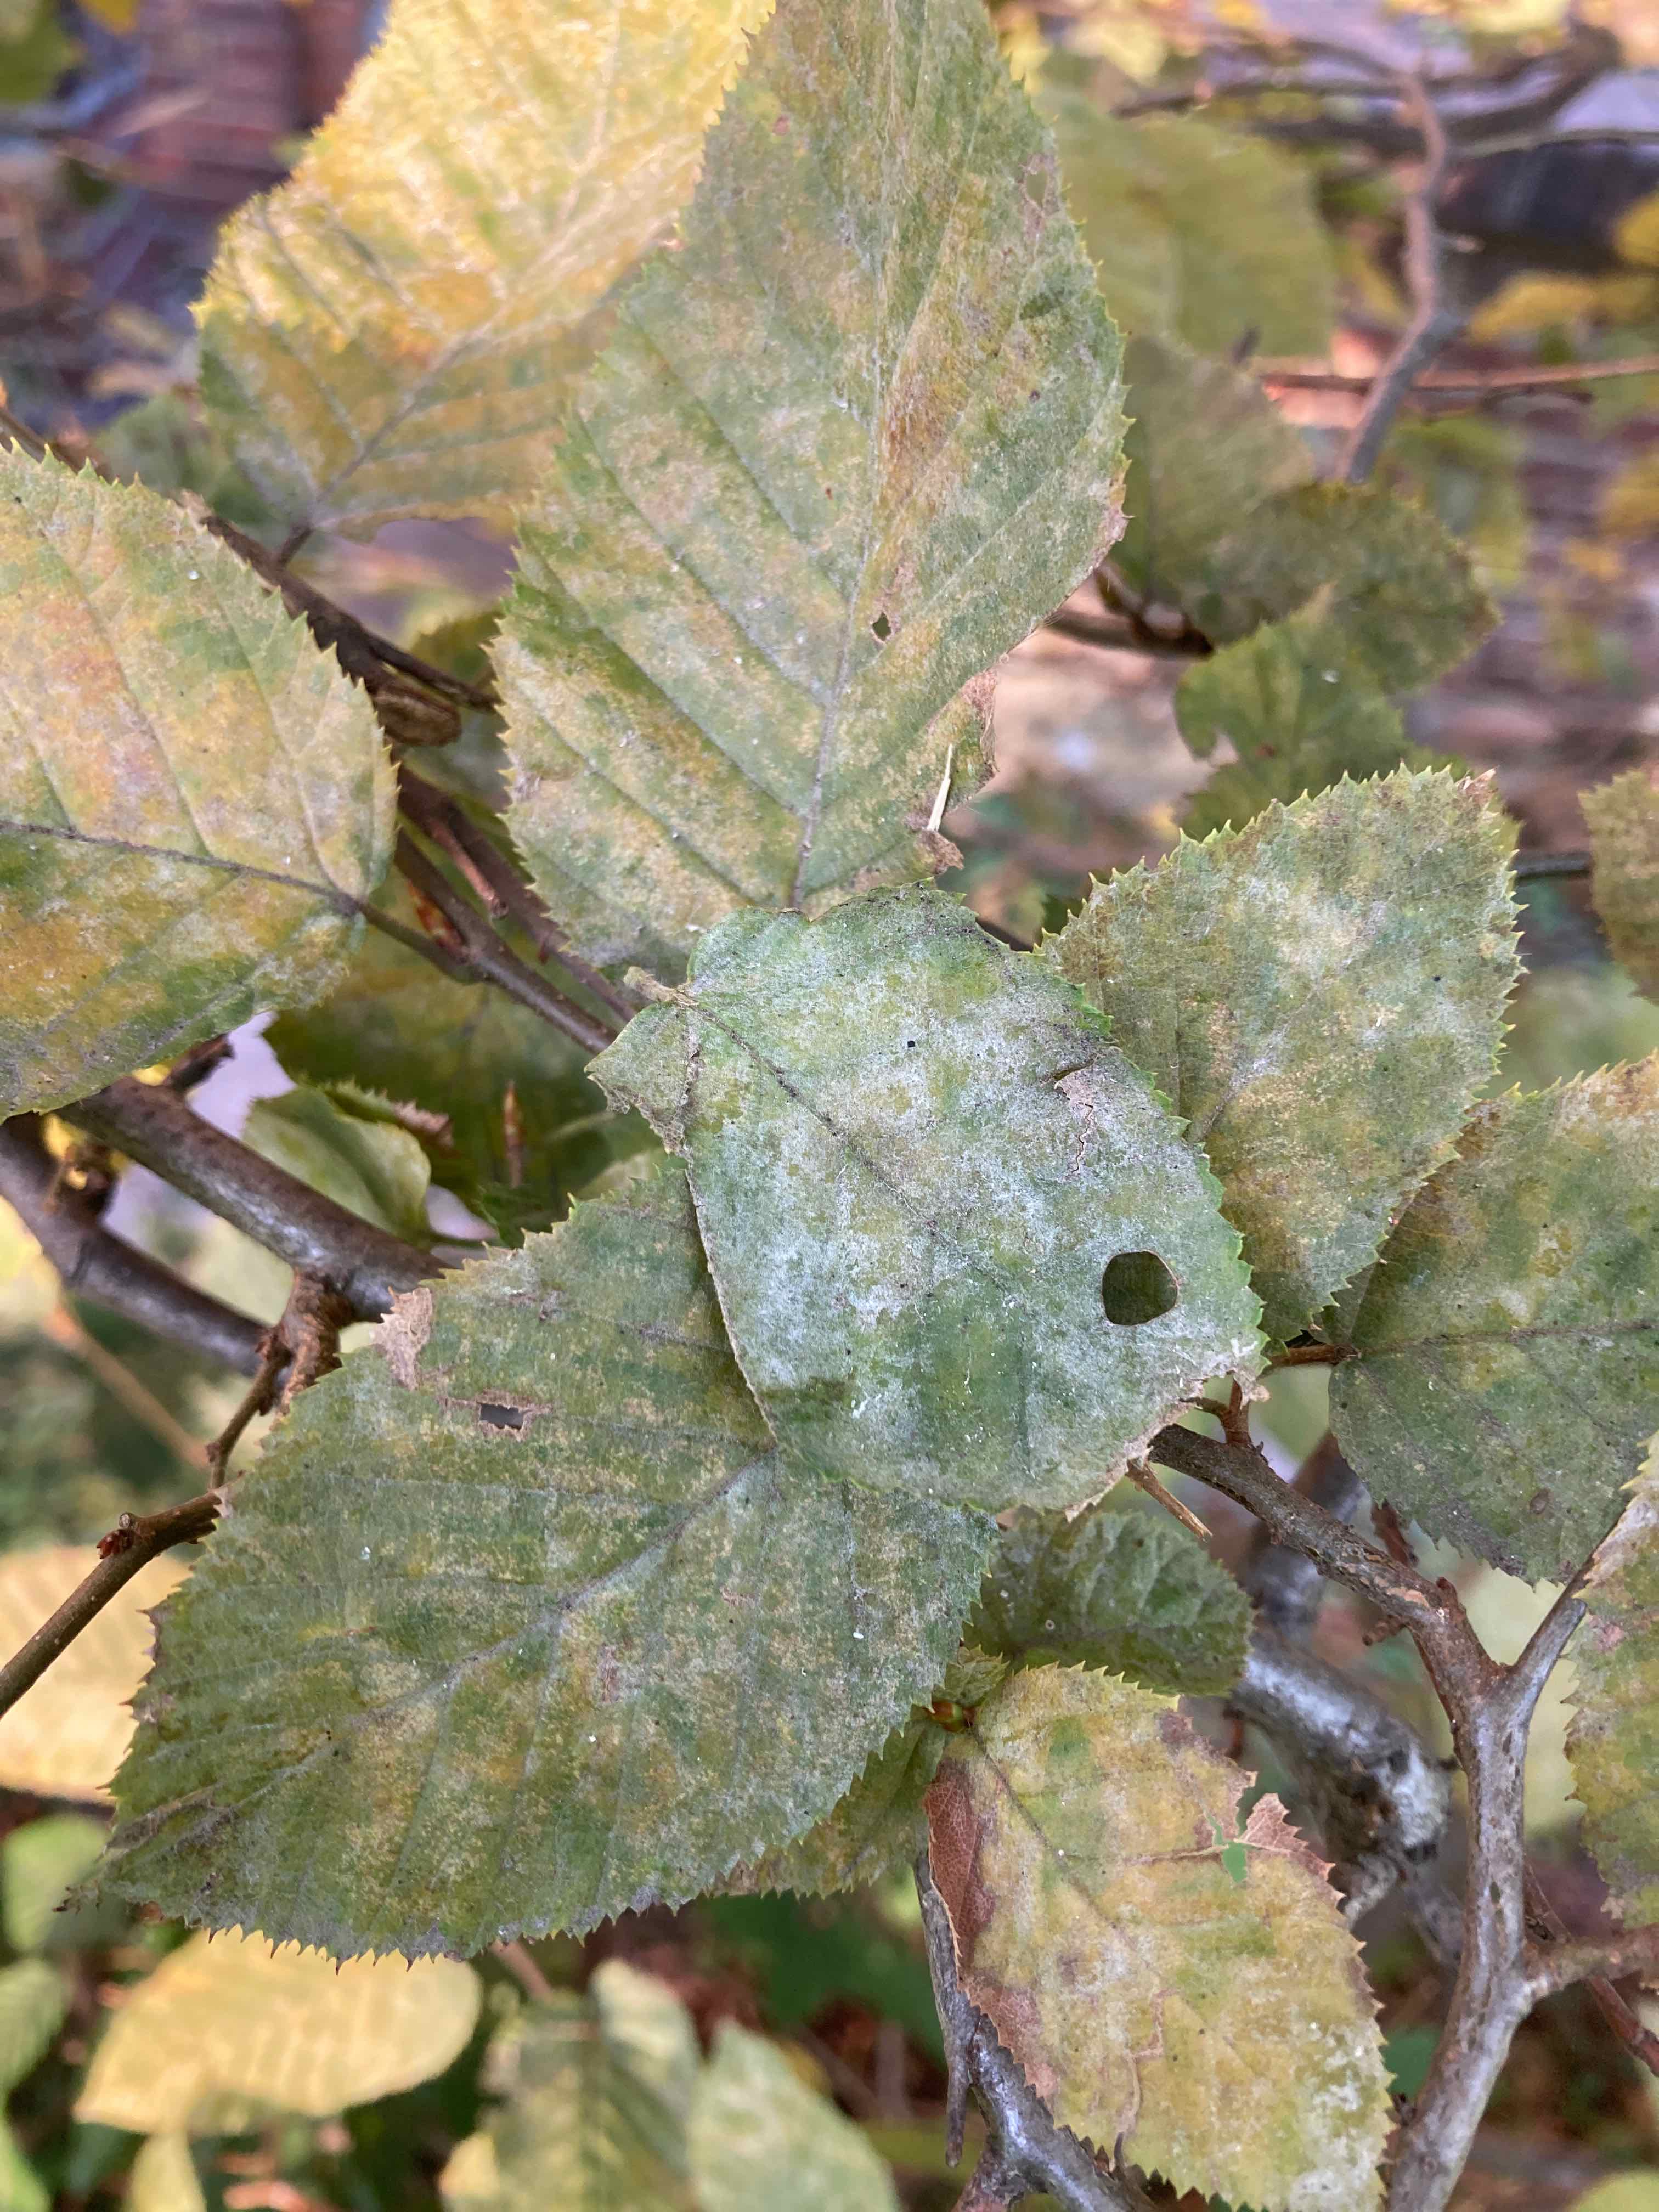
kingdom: Fungi
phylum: Ascomycota
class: Leotiomycetes
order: Helotiales
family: Erysiphaceae
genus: Erysiphe
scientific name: Erysiphe
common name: meldug
